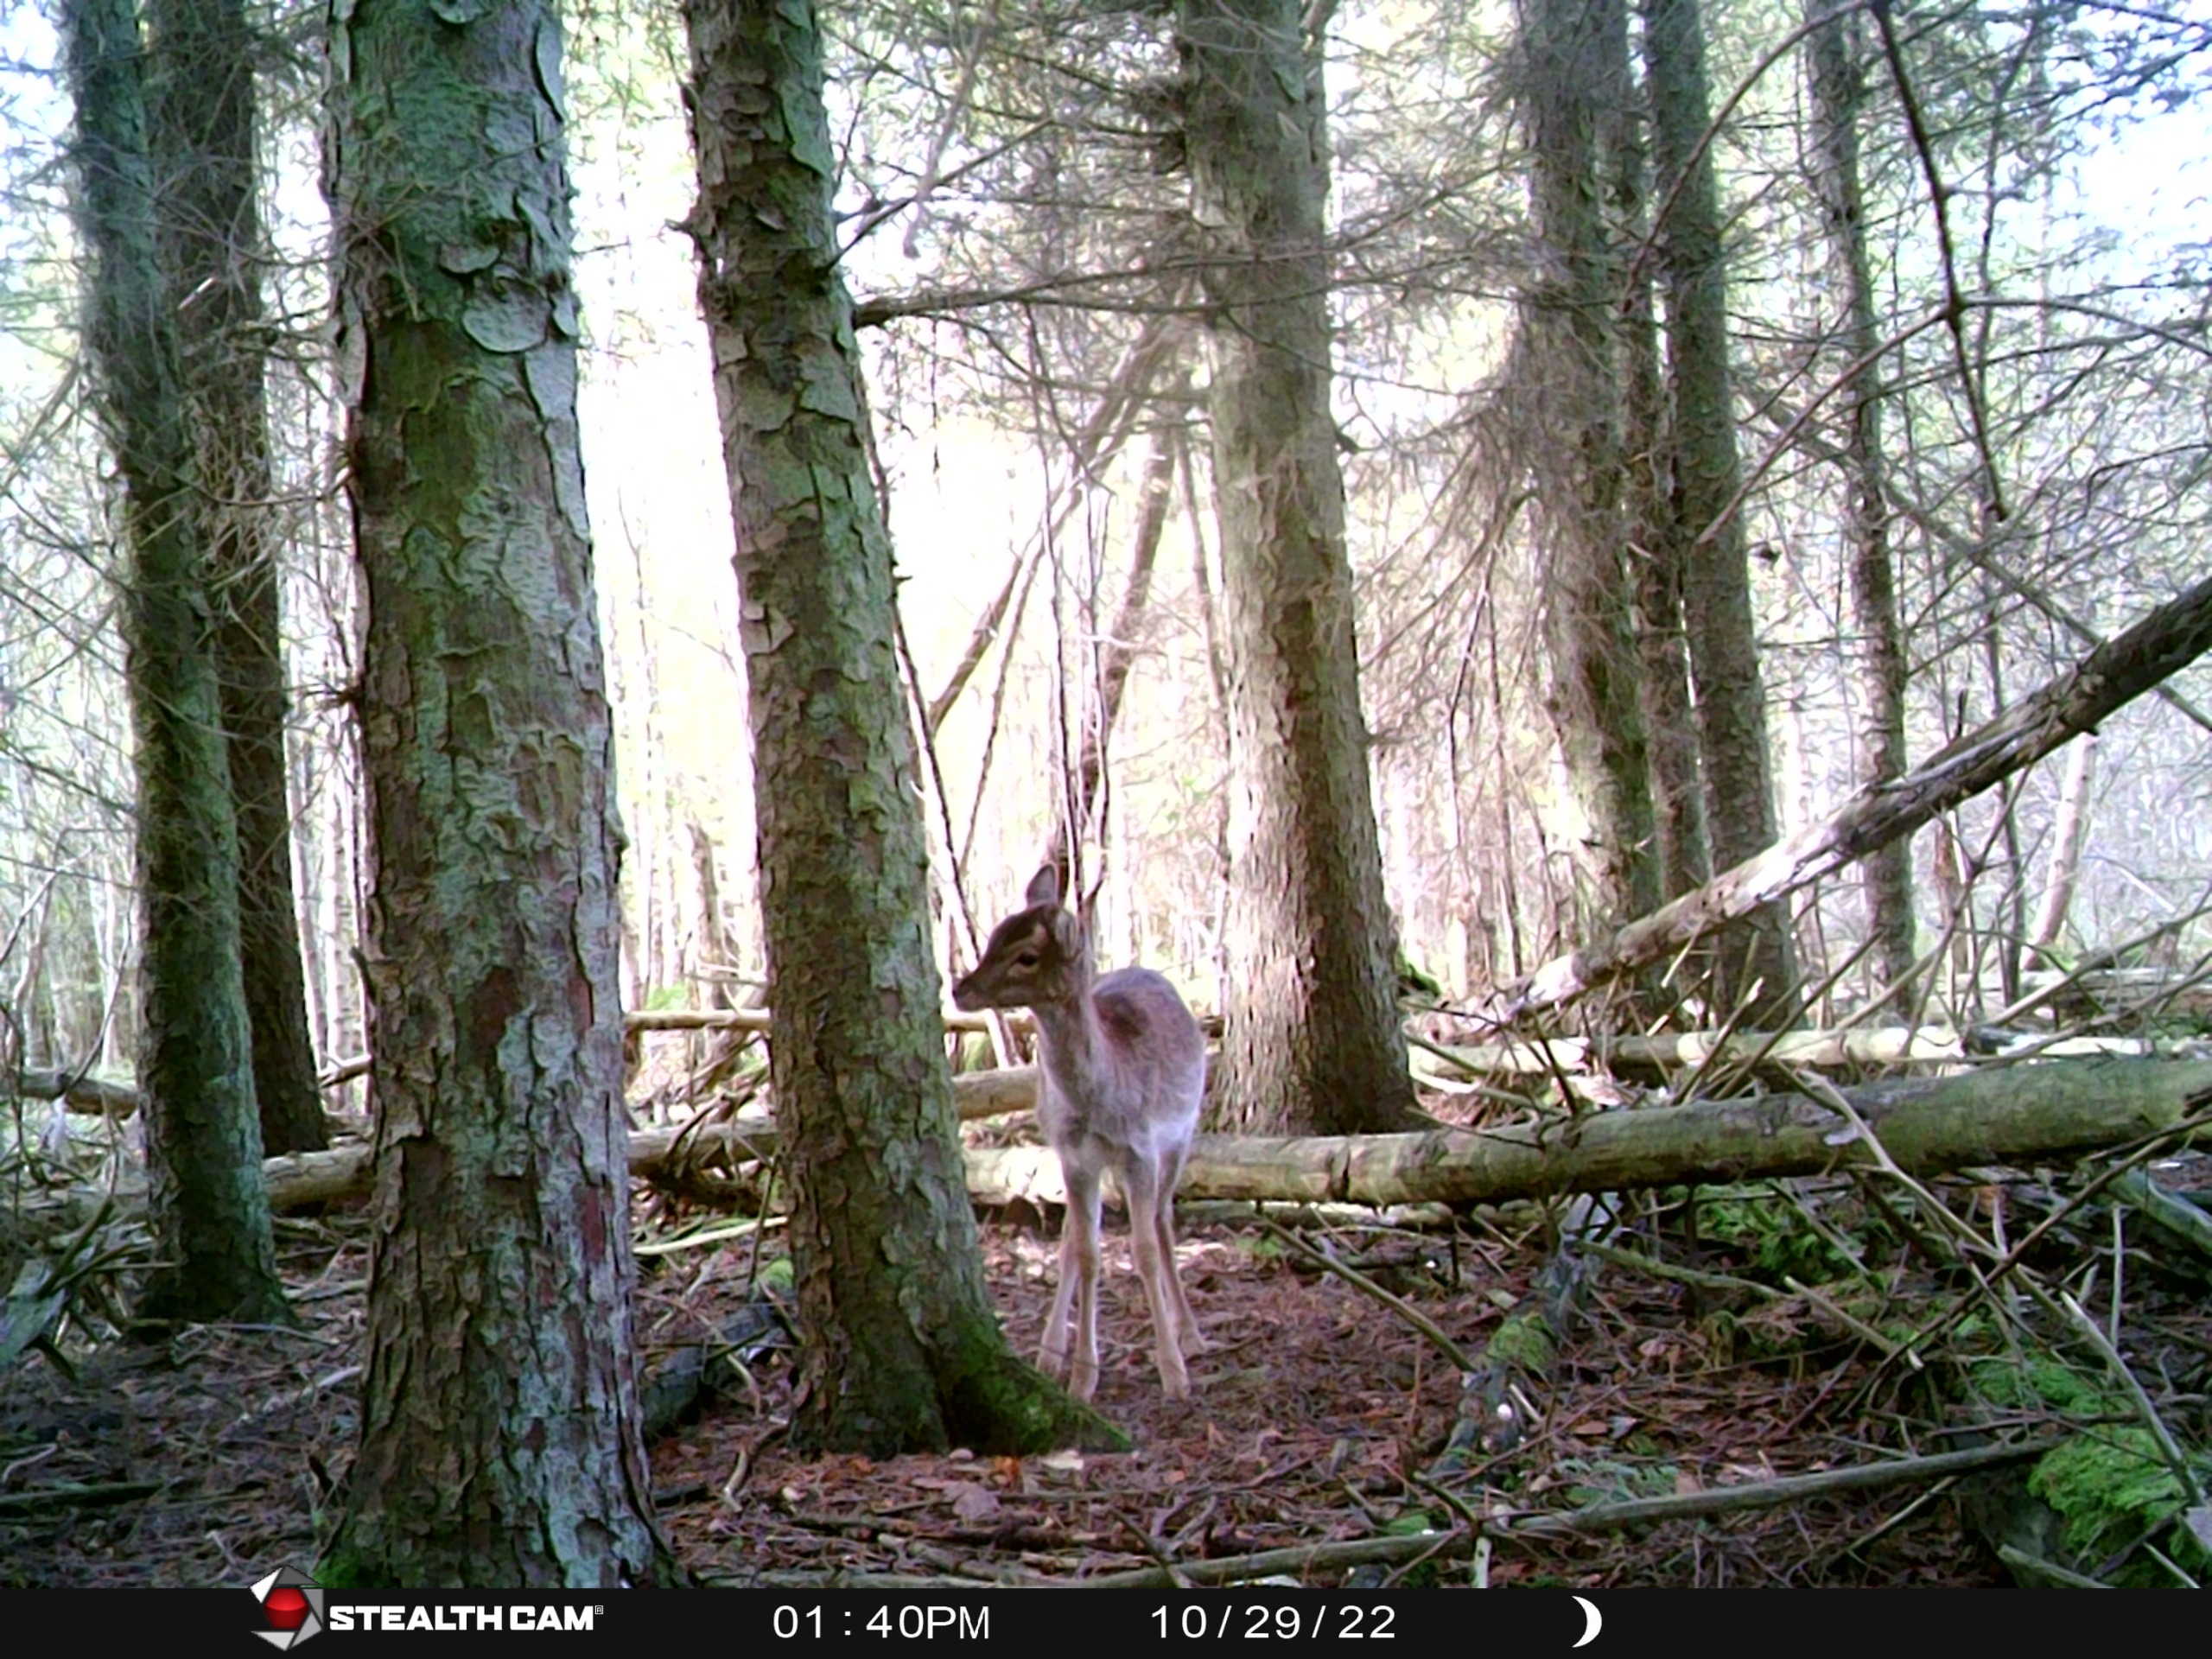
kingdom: Animalia
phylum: Chordata
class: Mammalia
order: Artiodactyla
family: Cervidae
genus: Dama
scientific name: Dama dama
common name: Dådyr
